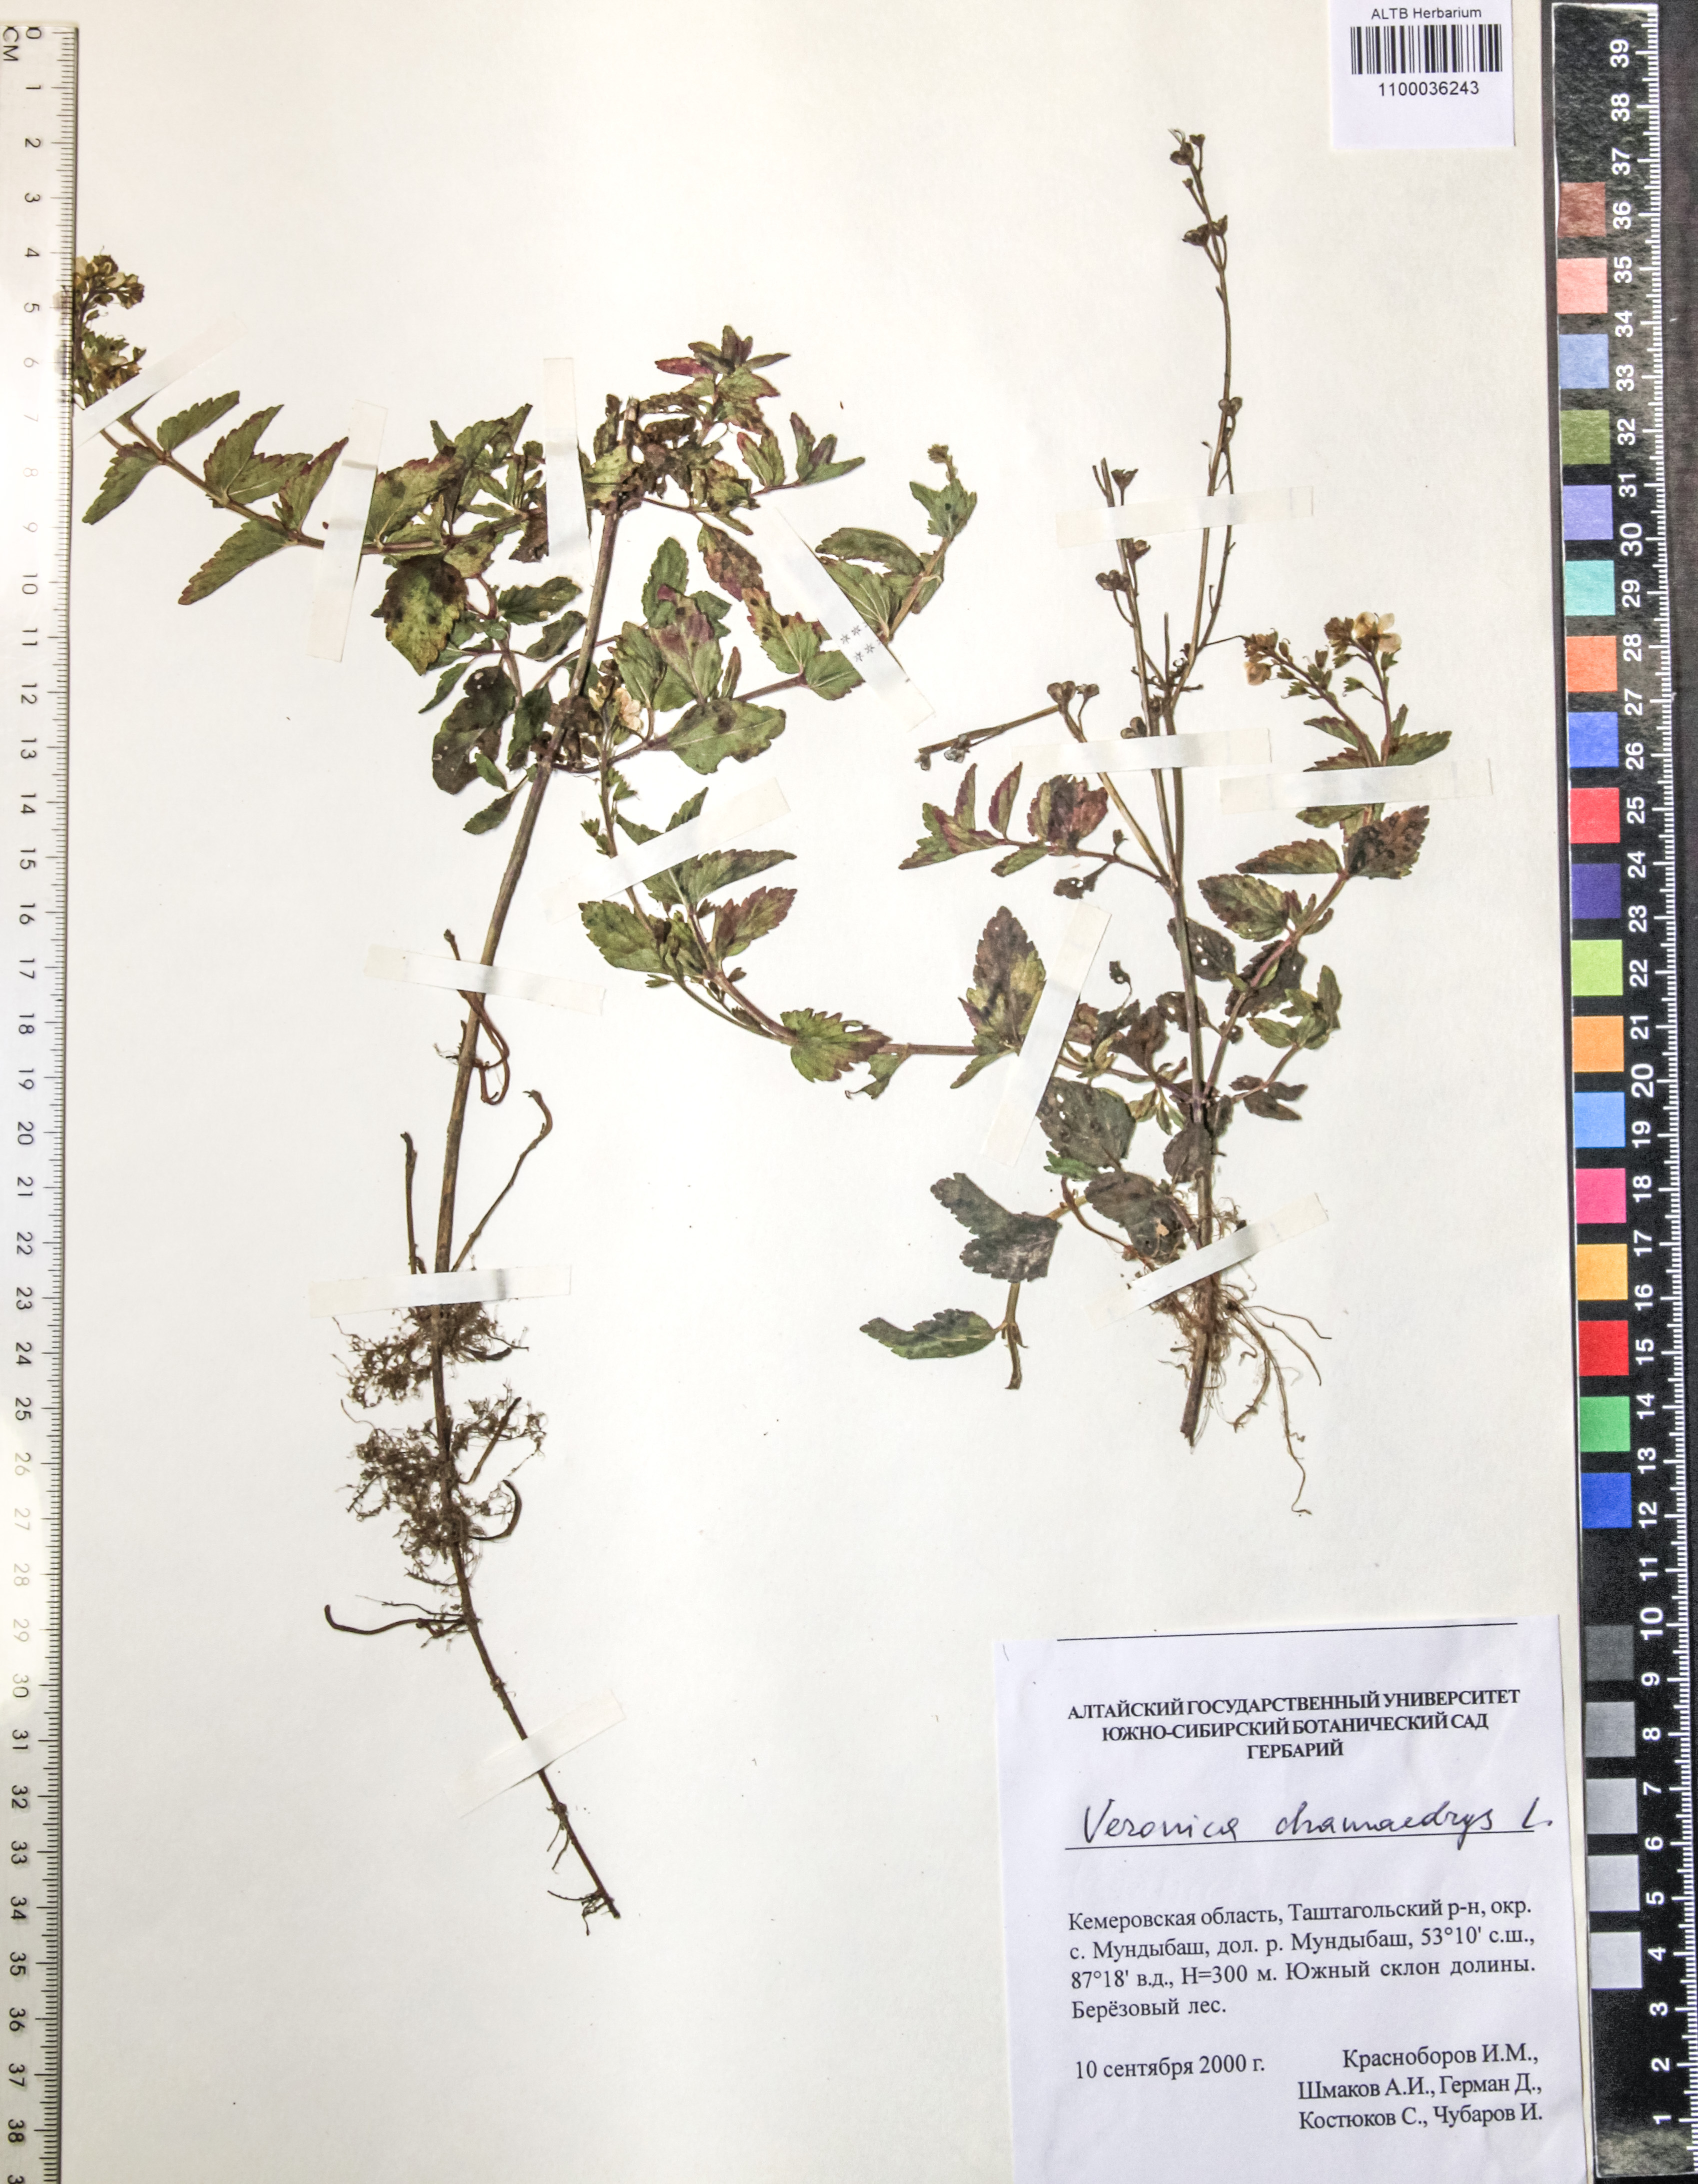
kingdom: Plantae
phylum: Tracheophyta
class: Magnoliopsida
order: Lamiales
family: Plantaginaceae
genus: Veronica
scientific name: Veronica chamaedrys
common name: Germander speedwell
